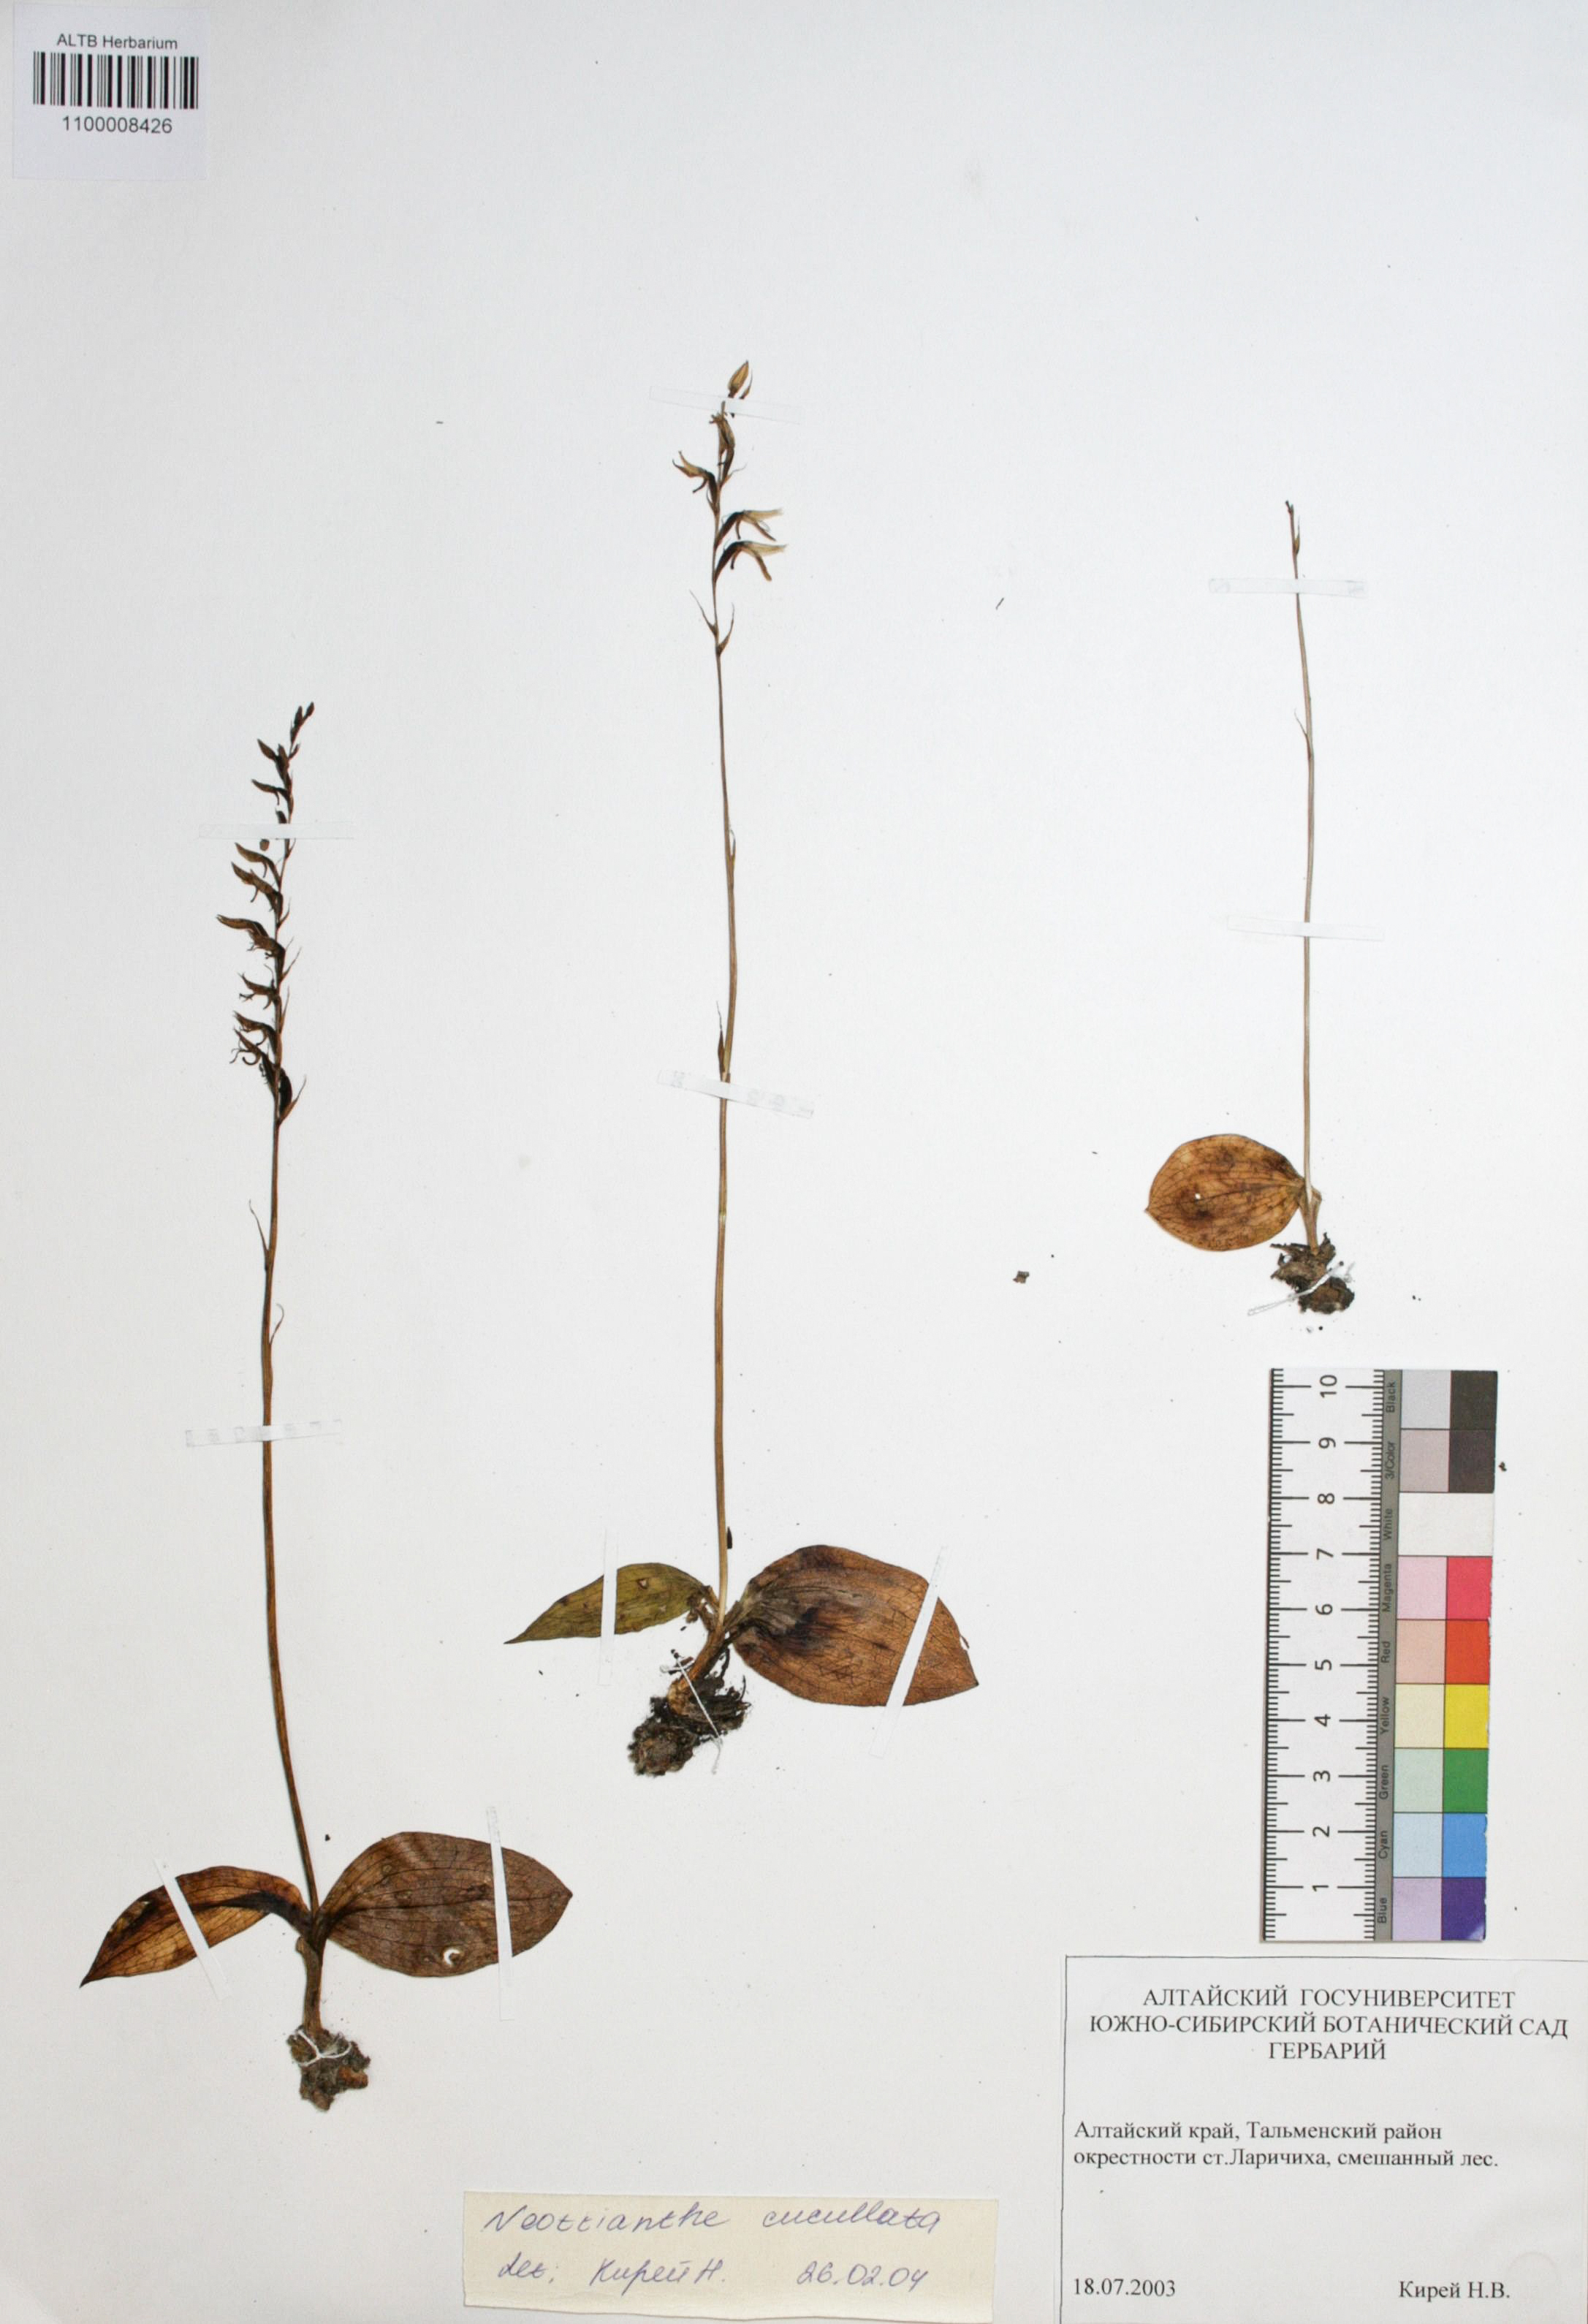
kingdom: Plantae
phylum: Tracheophyta
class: Liliopsida
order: Asparagales
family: Orchidaceae
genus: Hemipilia
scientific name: Hemipilia cucullata
